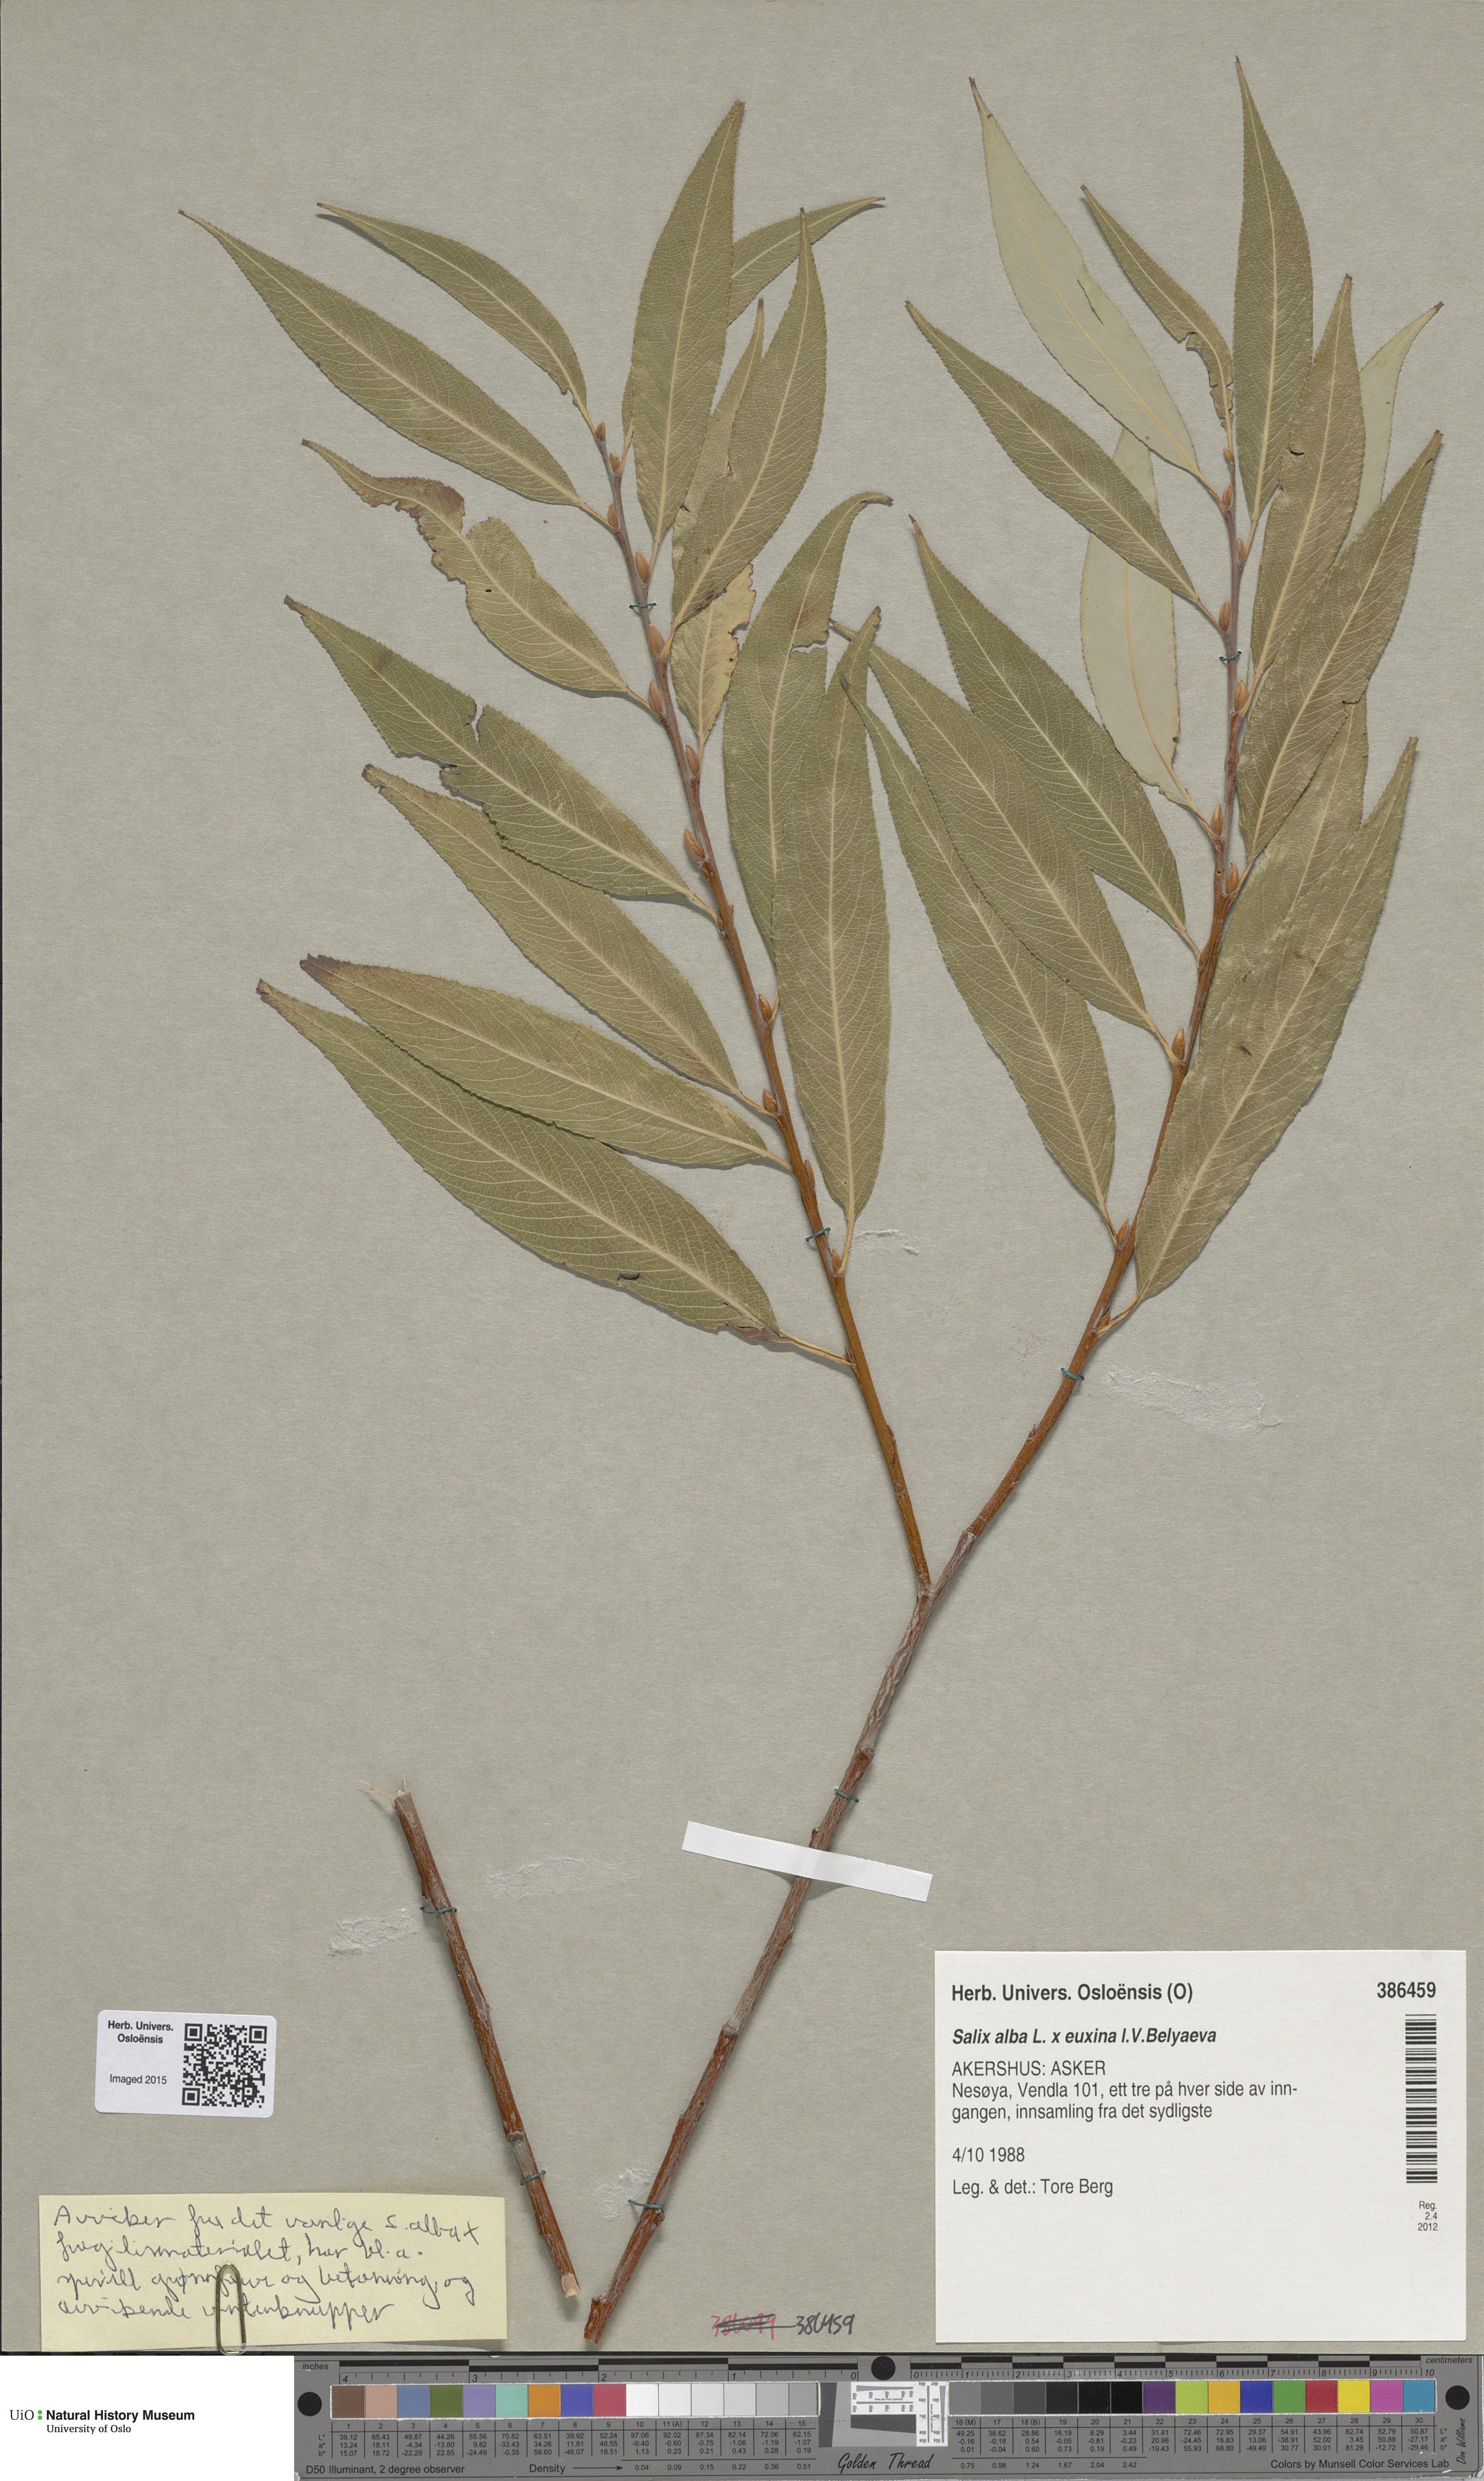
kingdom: Plantae
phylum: Tracheophyta
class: Magnoliopsida
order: Malpighiales
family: Salicaceae
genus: Salix
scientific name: Salix
